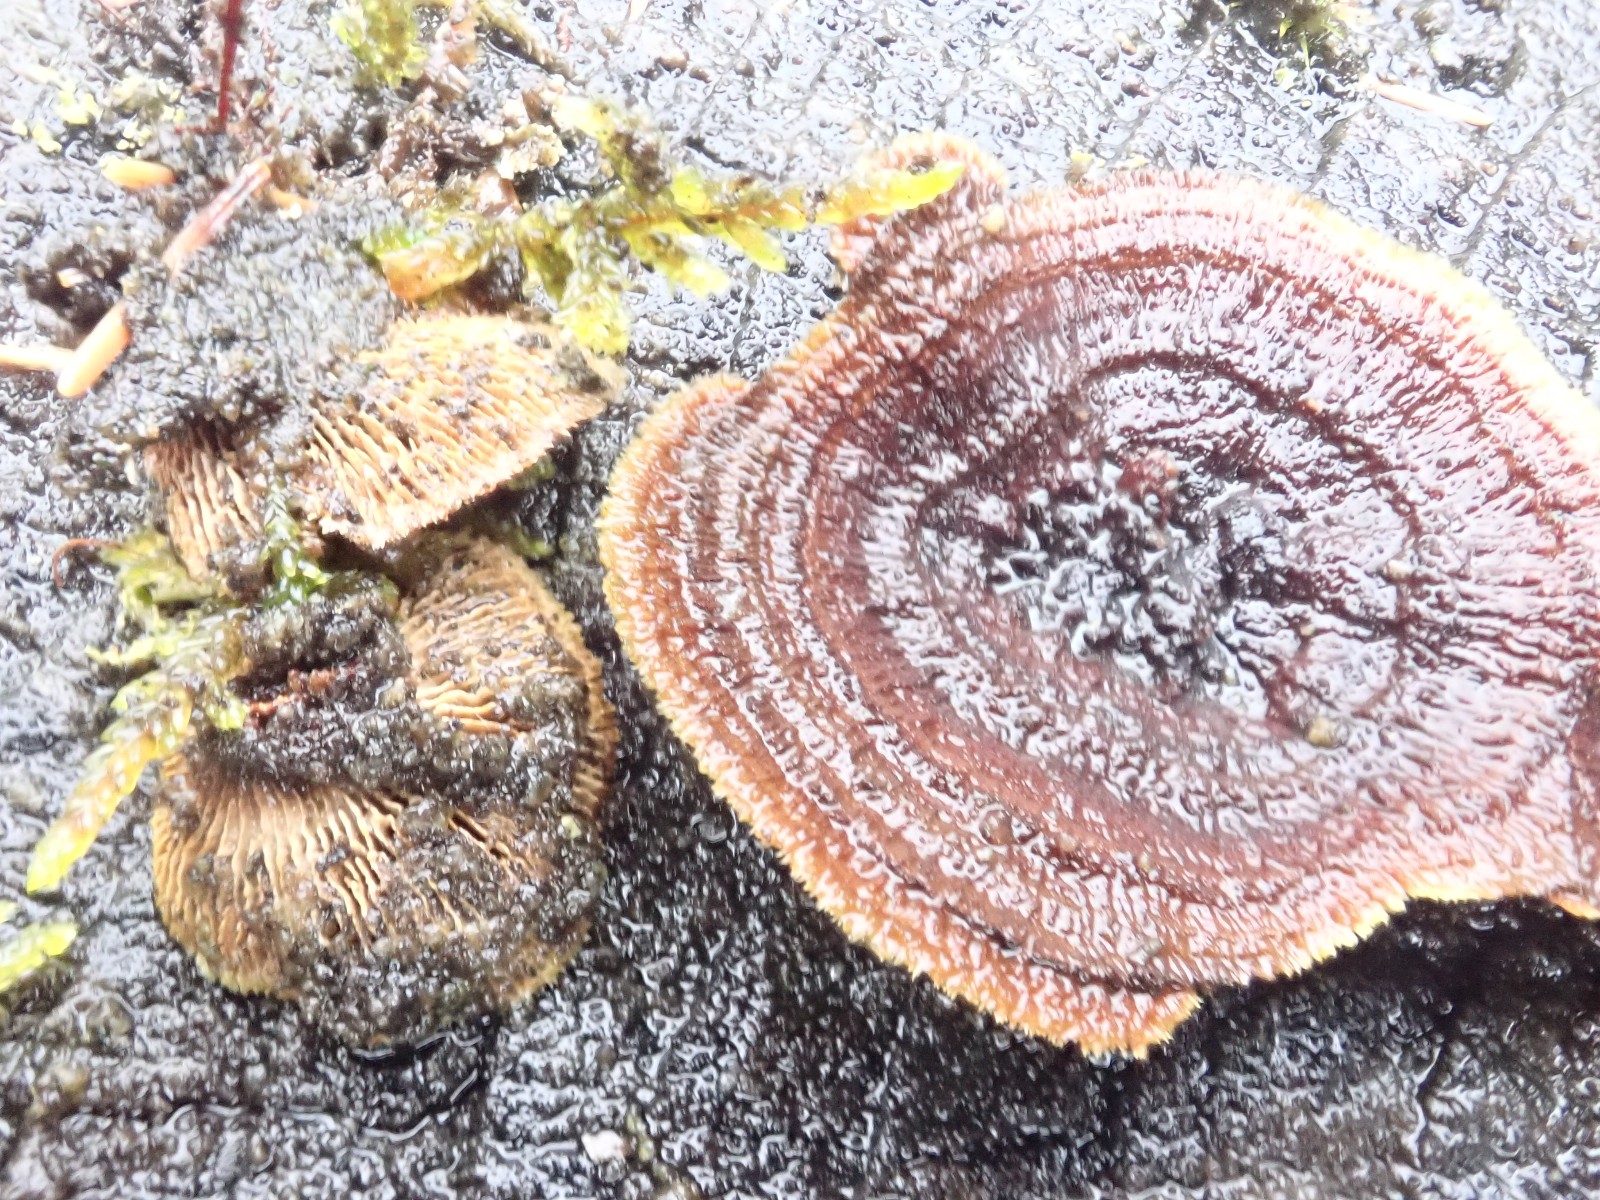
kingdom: Fungi
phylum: Basidiomycota
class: Agaricomycetes
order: Gloeophyllales
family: Gloeophyllaceae
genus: Gloeophyllum
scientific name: Gloeophyllum sepiarium
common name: fyrre-korkhat
